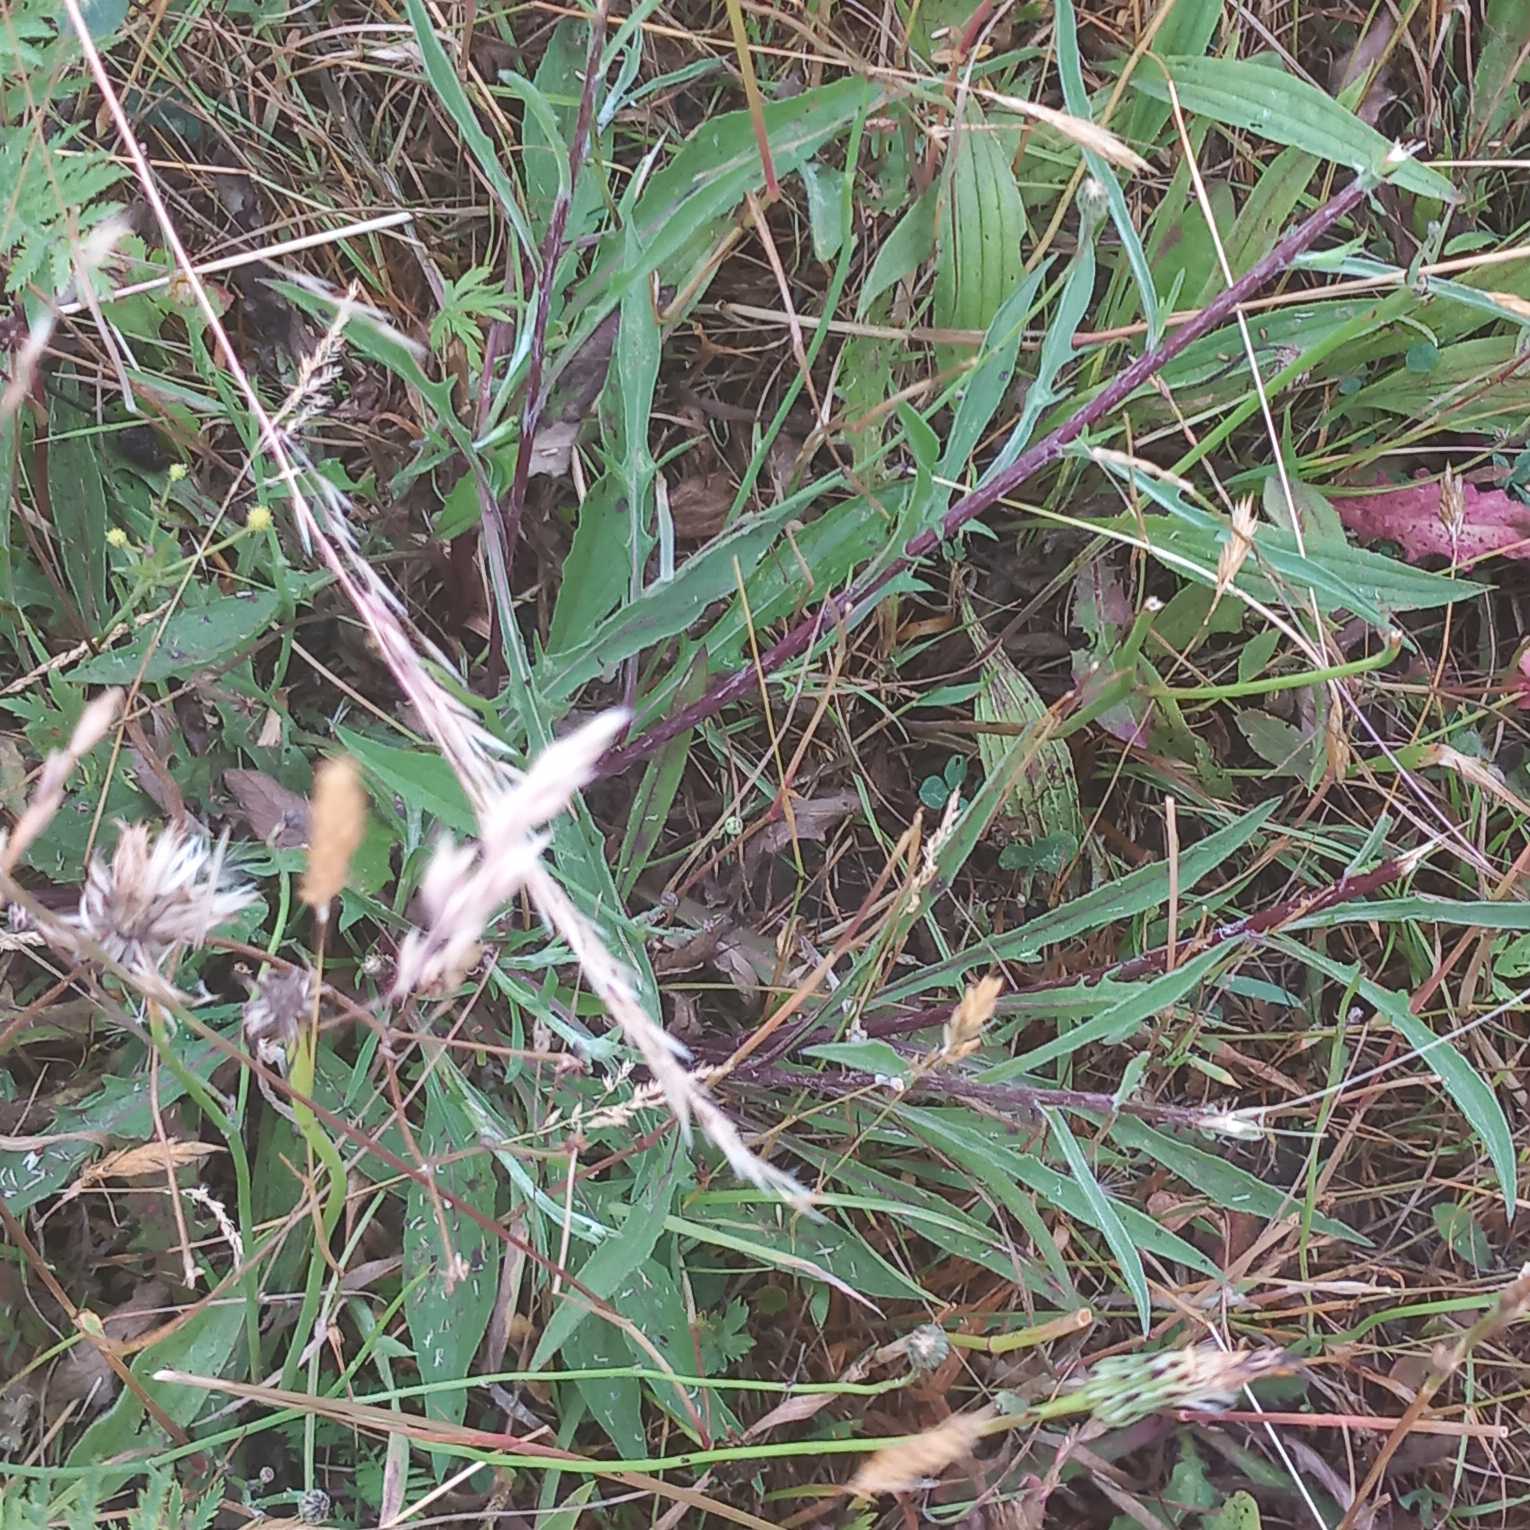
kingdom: Plantae
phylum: Tracheophyta
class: Magnoliopsida
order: Asterales
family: Asteraceae
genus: Centaurea
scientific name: Centaurea jacea
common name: Almindelig knopurt
